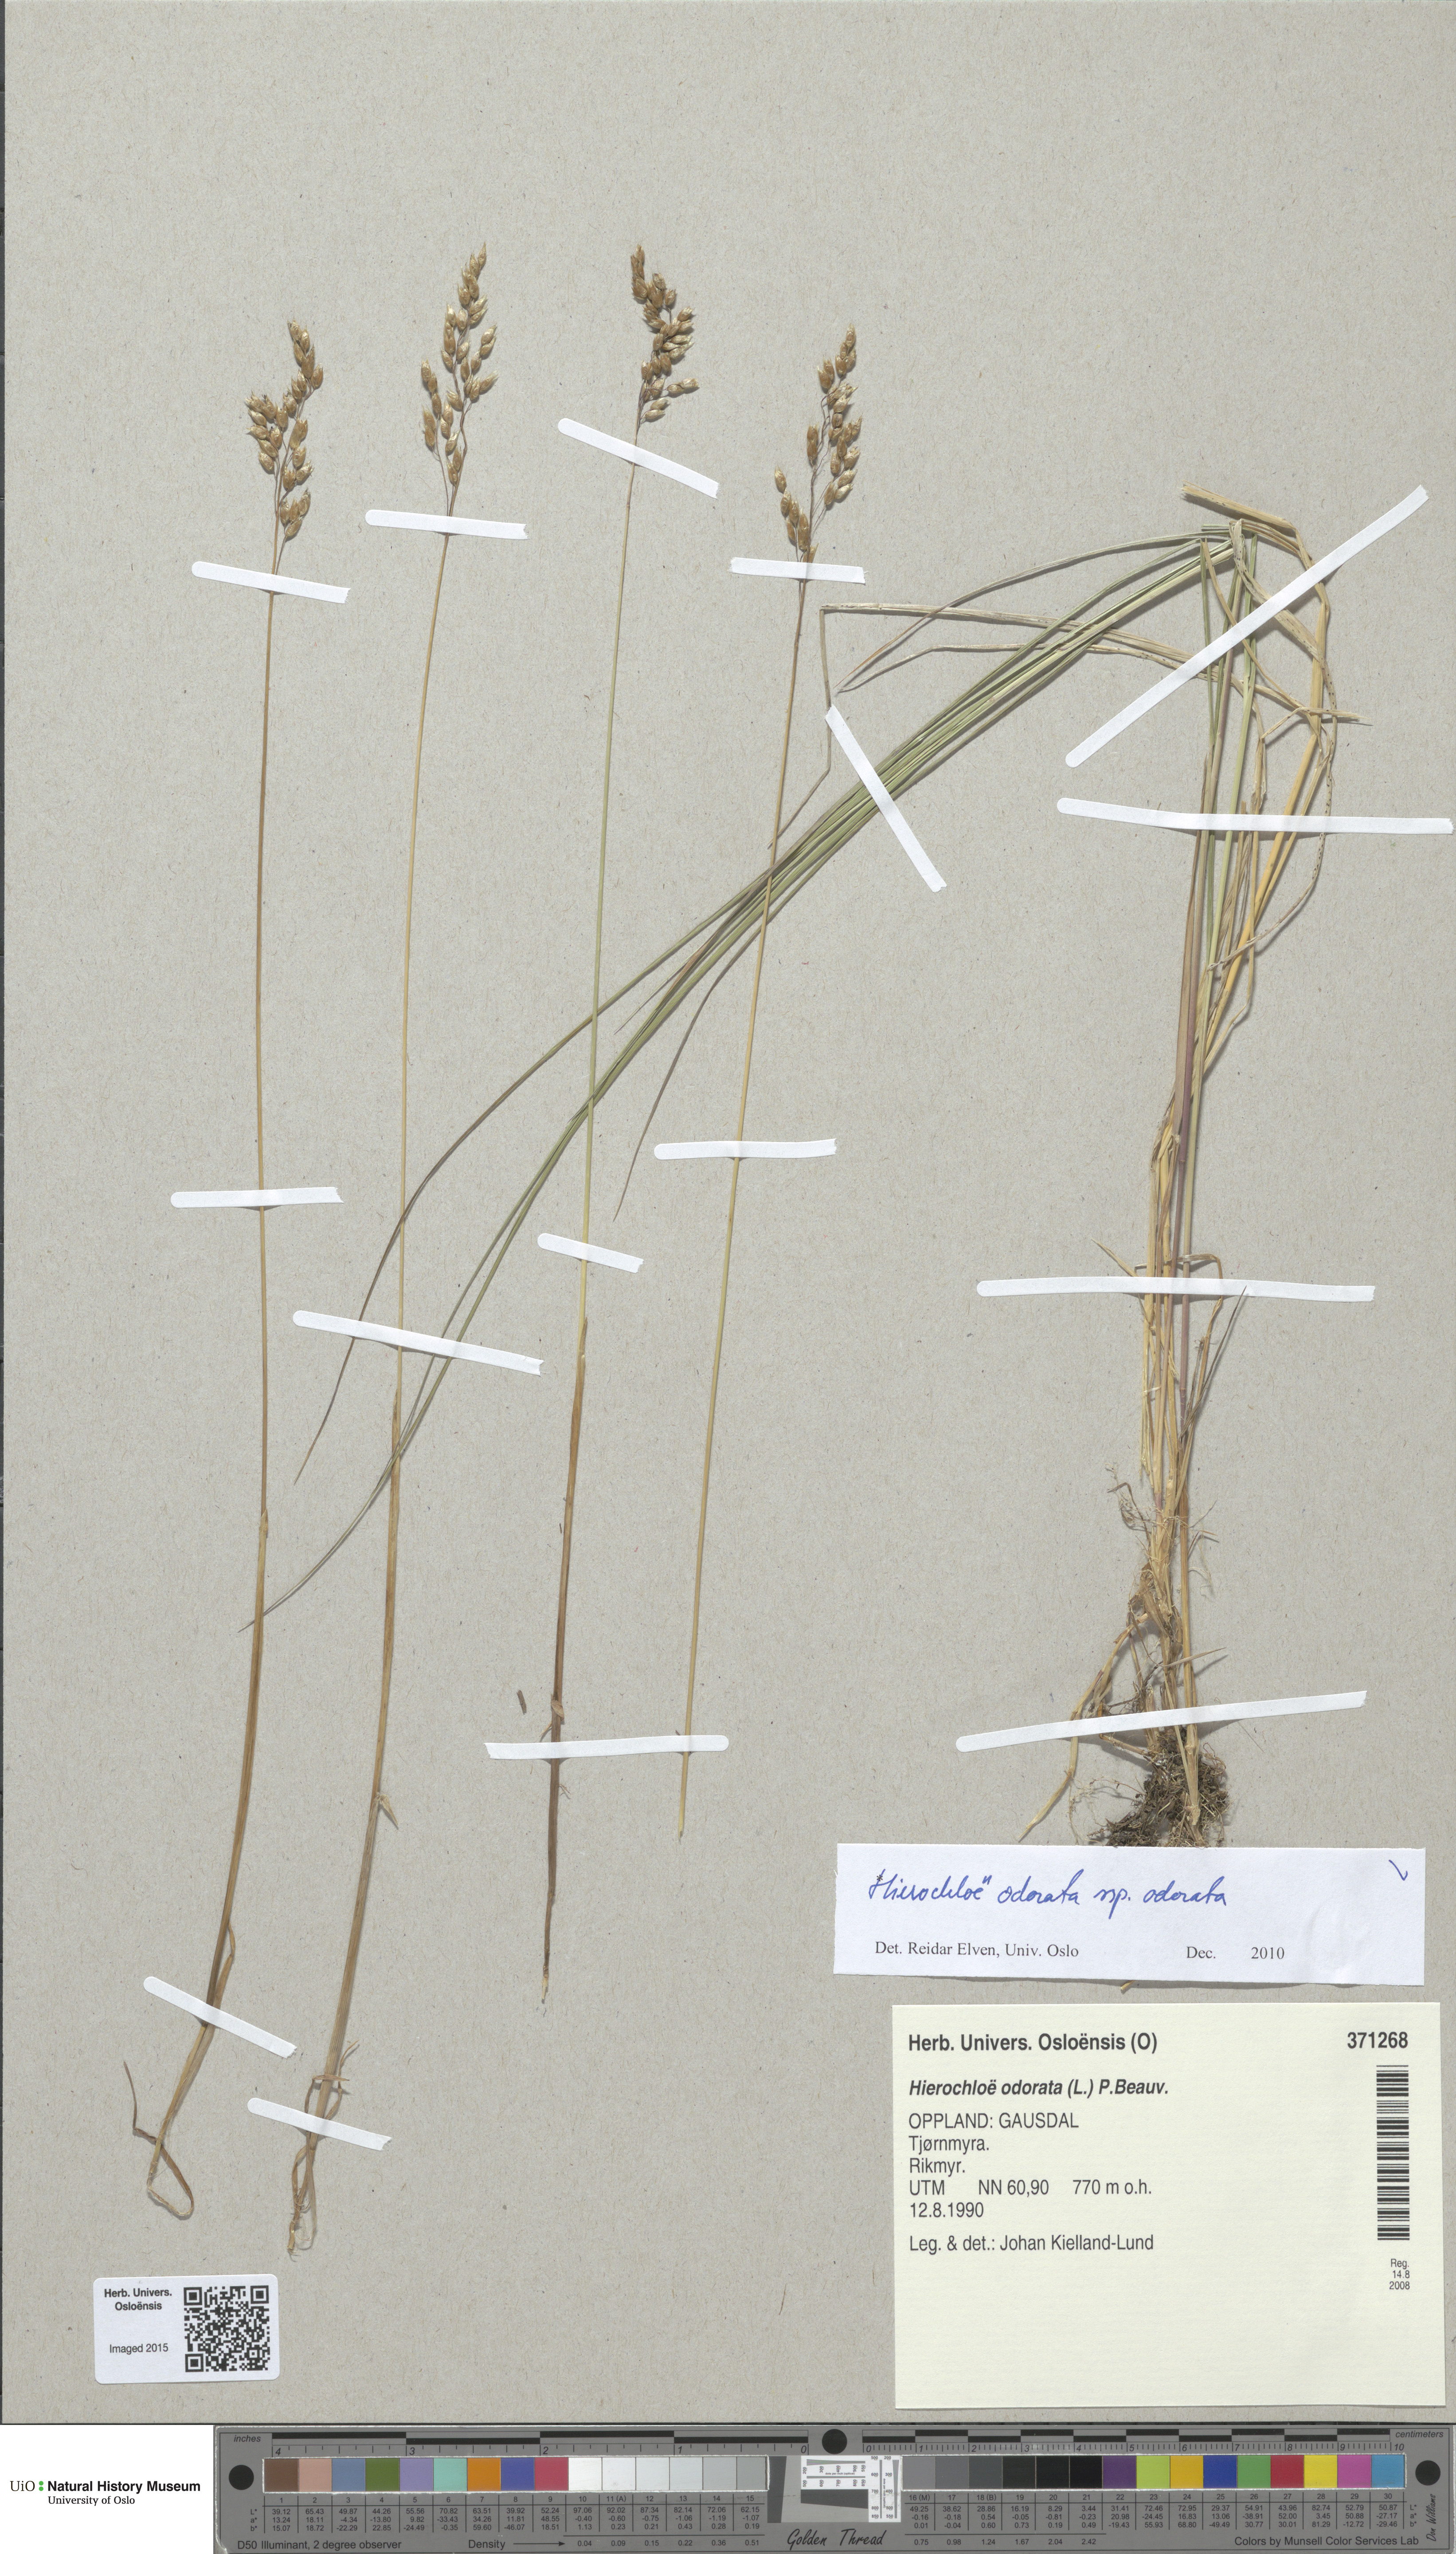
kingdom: Plantae
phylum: Tracheophyta
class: Liliopsida
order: Poales
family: Poaceae
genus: Anthoxanthum
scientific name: Anthoxanthum nitens
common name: Holy grass
